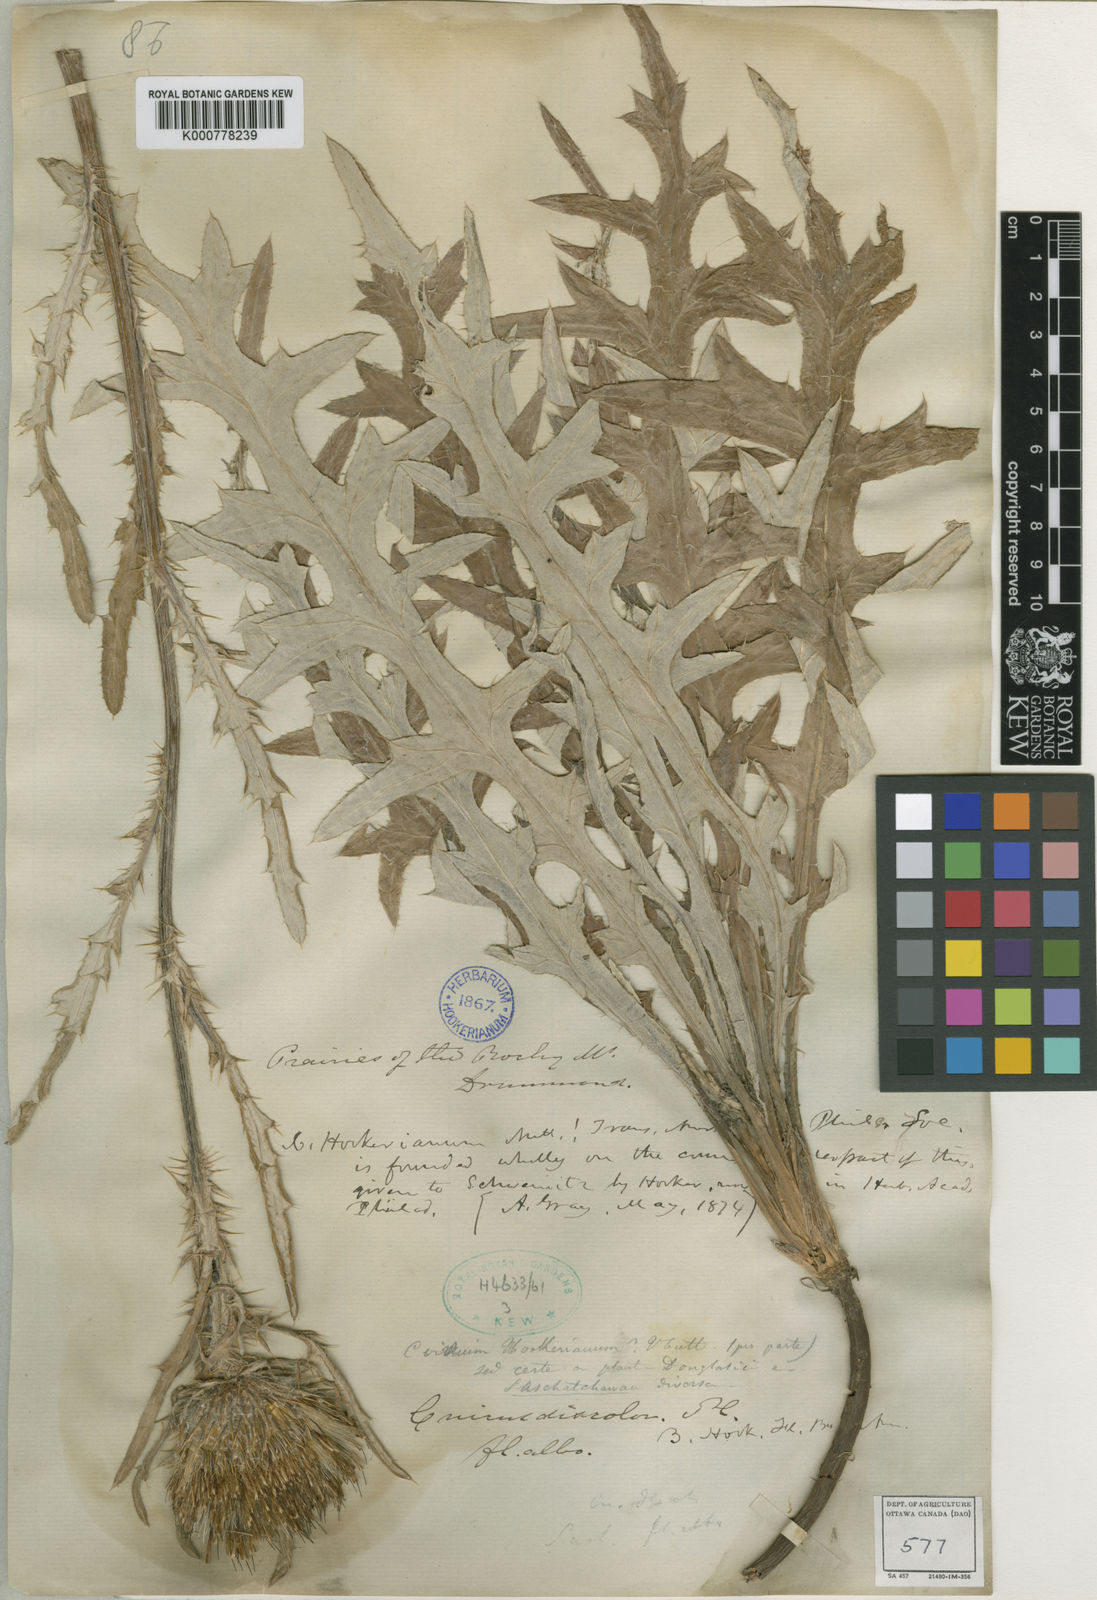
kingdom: Plantae
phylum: Tracheophyta
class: Magnoliopsida
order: Asterales
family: Asteraceae
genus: Cirsium
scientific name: Cirsium hookerianum
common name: Hooker's thistle
